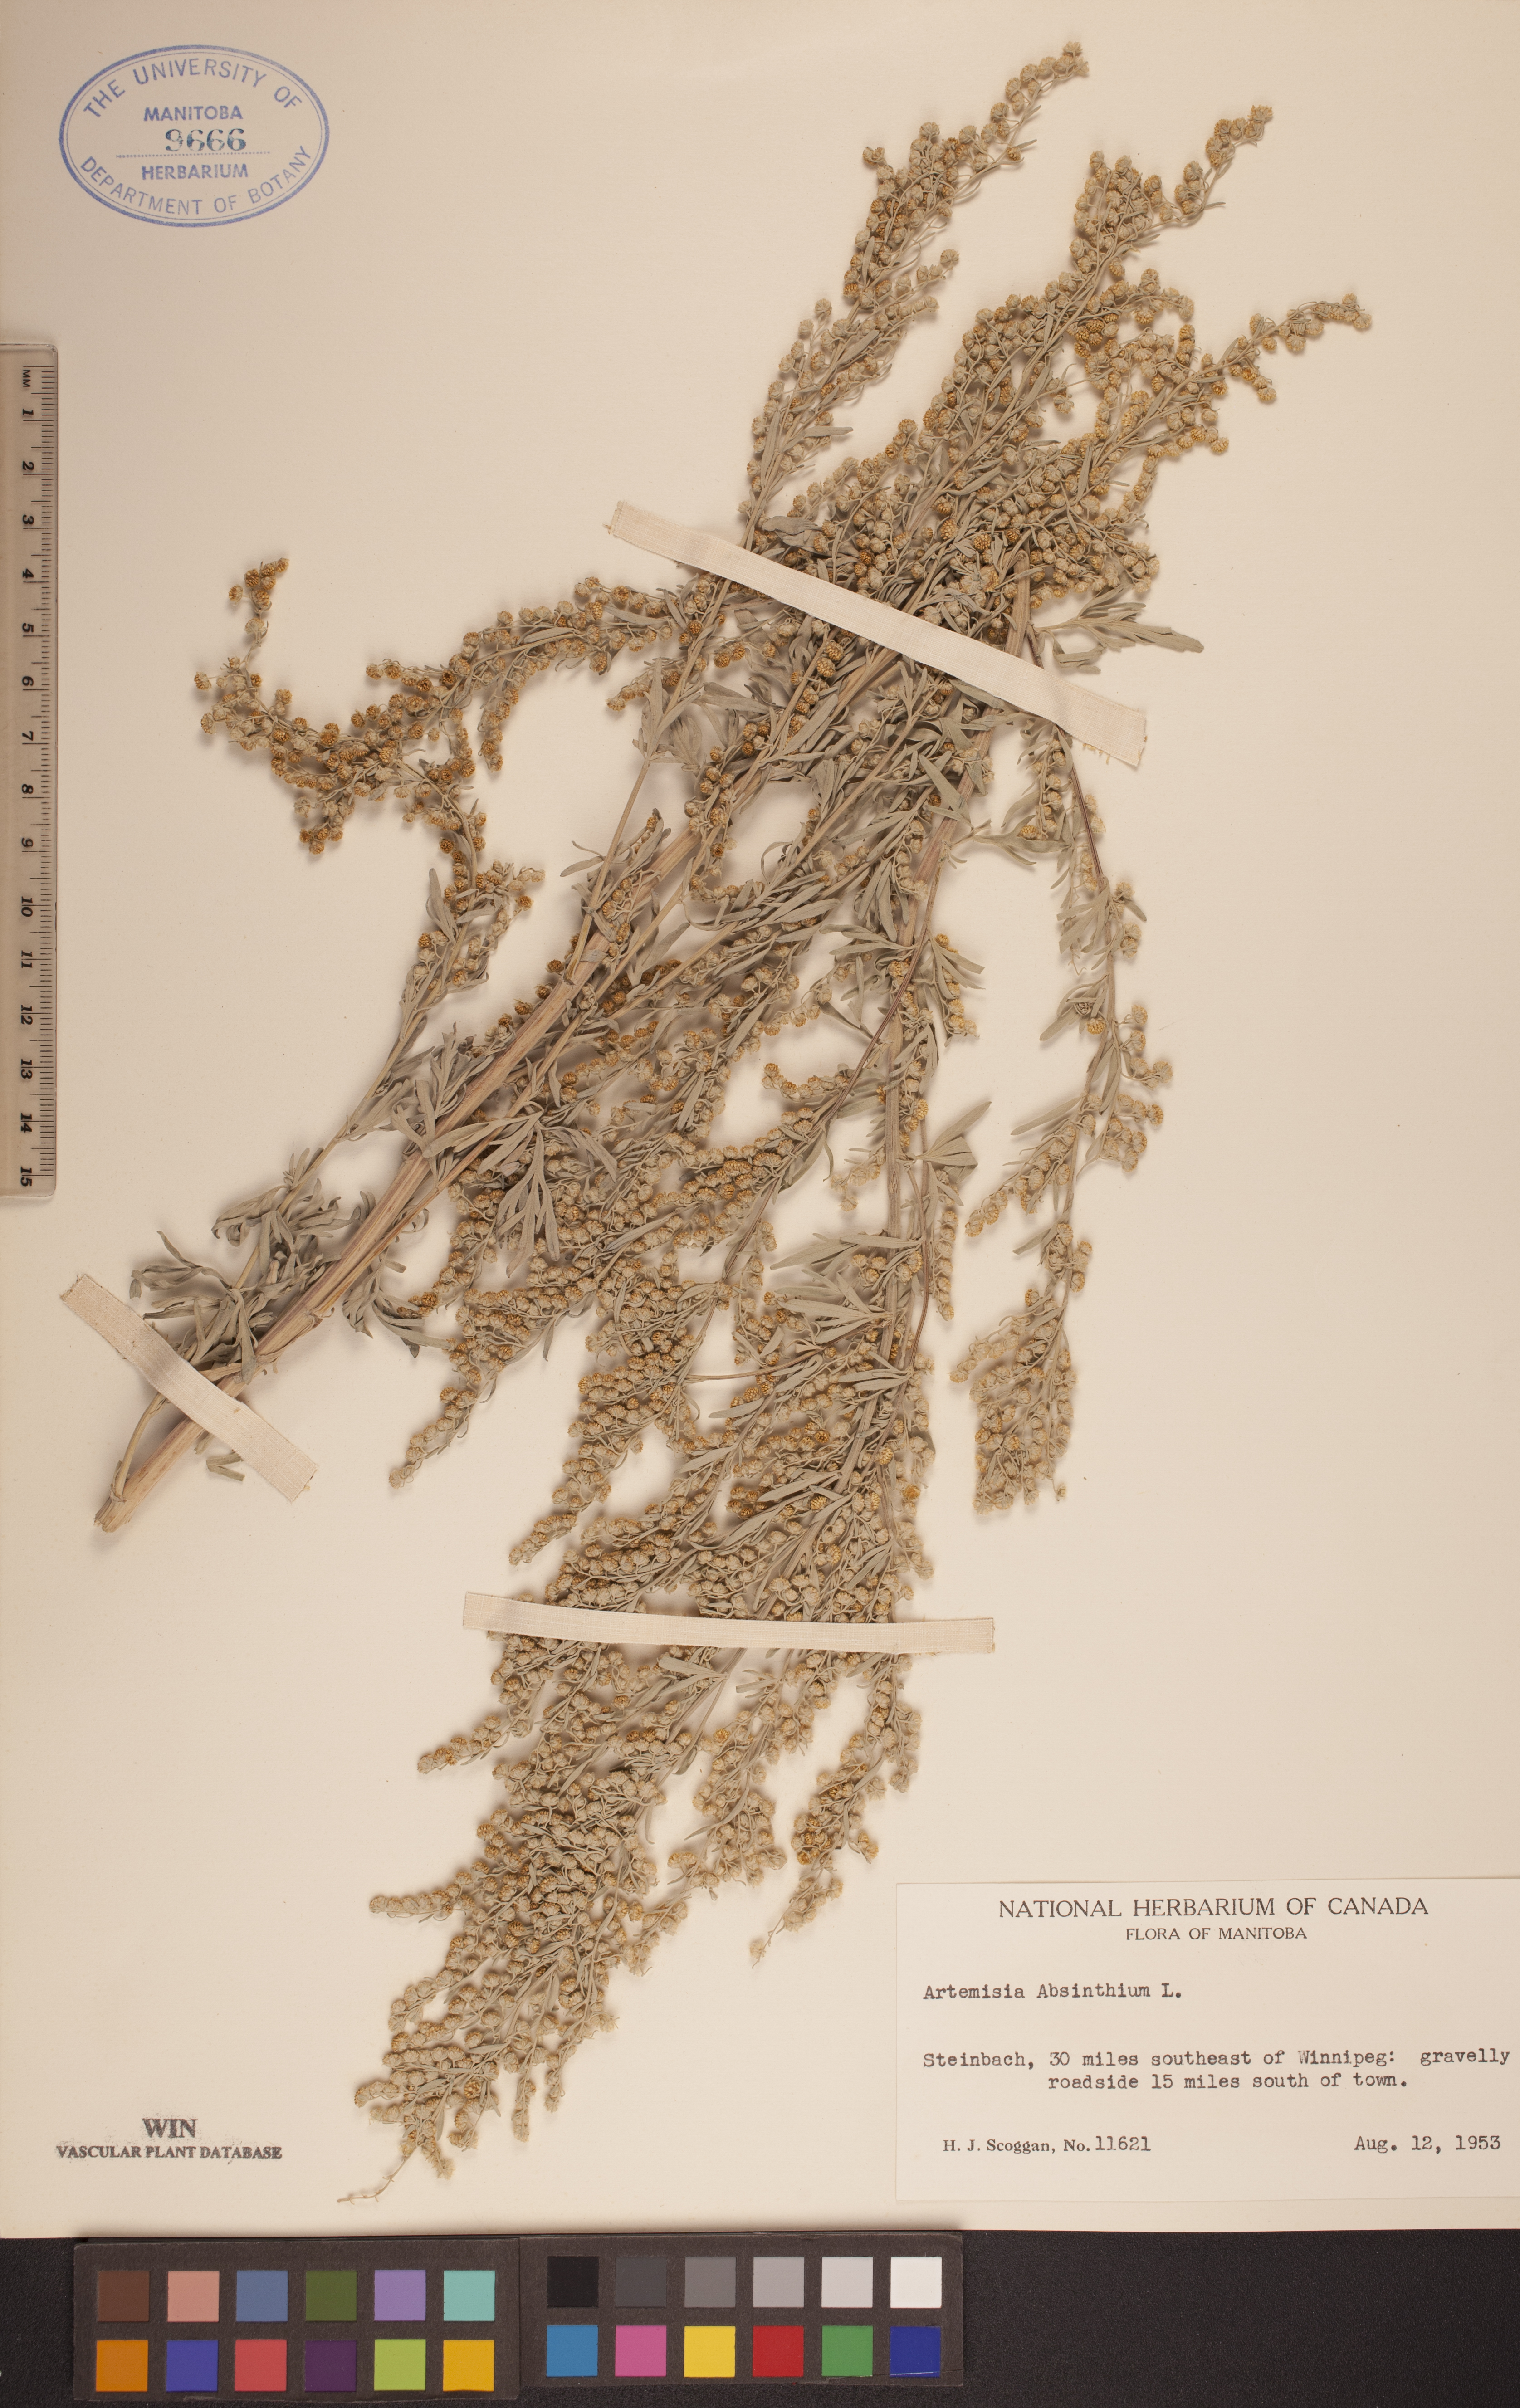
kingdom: Plantae
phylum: Tracheophyta
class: Magnoliopsida
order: Asterales
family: Asteraceae
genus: Artemisia
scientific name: Artemisia absinthium
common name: Wormwood
